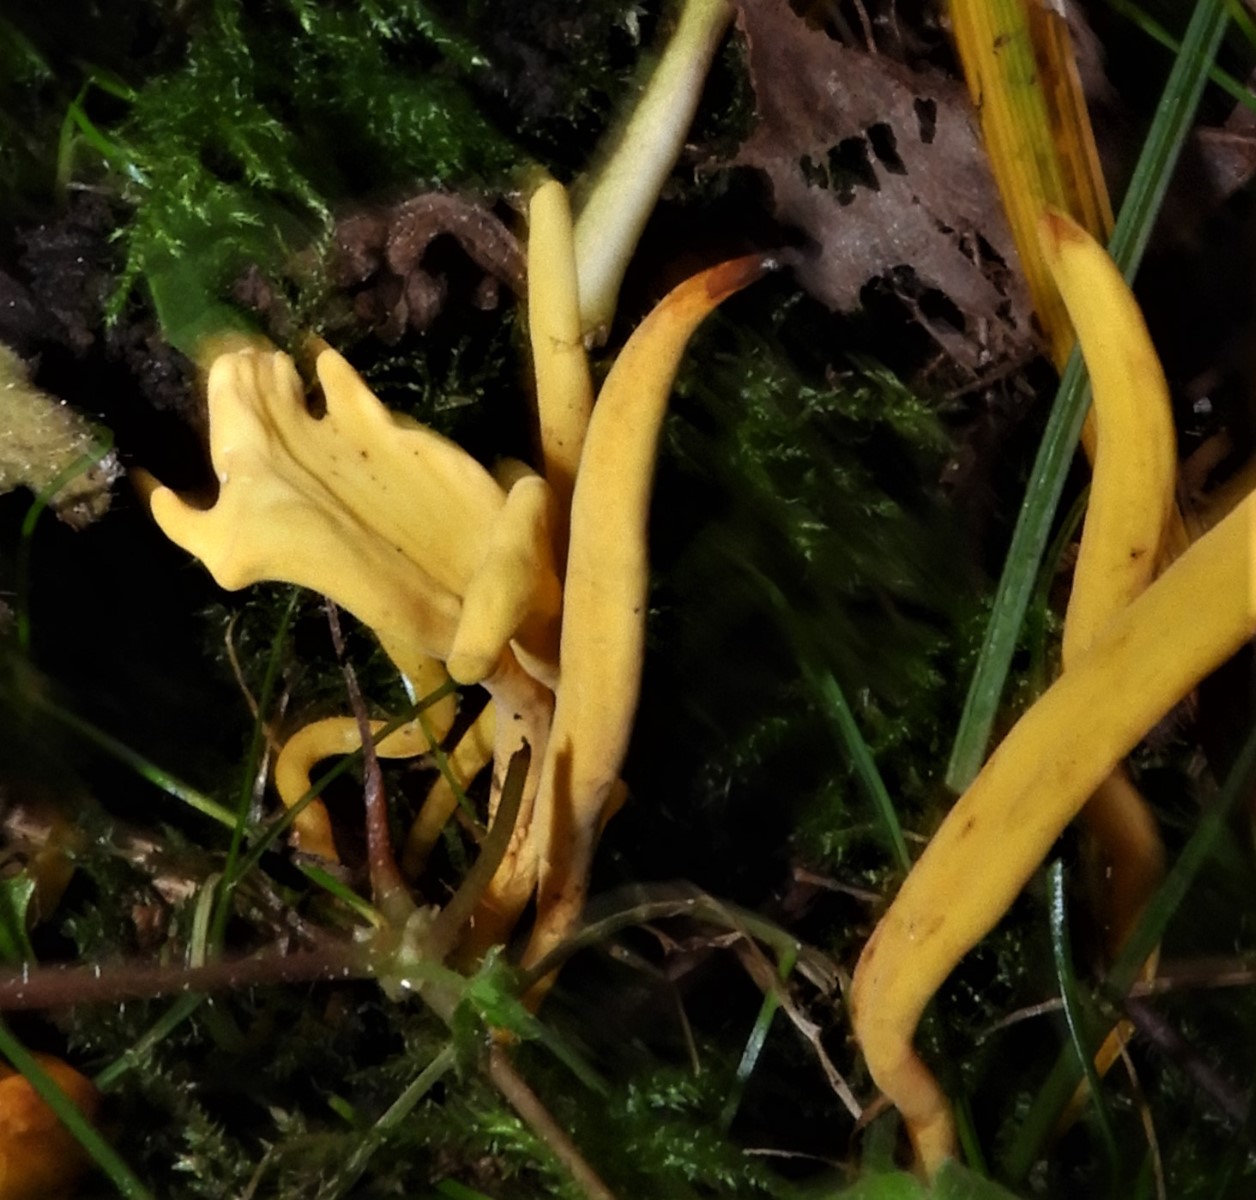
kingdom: Fungi
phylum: Basidiomycota
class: Agaricomycetes
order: Agaricales
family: Clavariaceae
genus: Clavulinopsis
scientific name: Clavulinopsis
